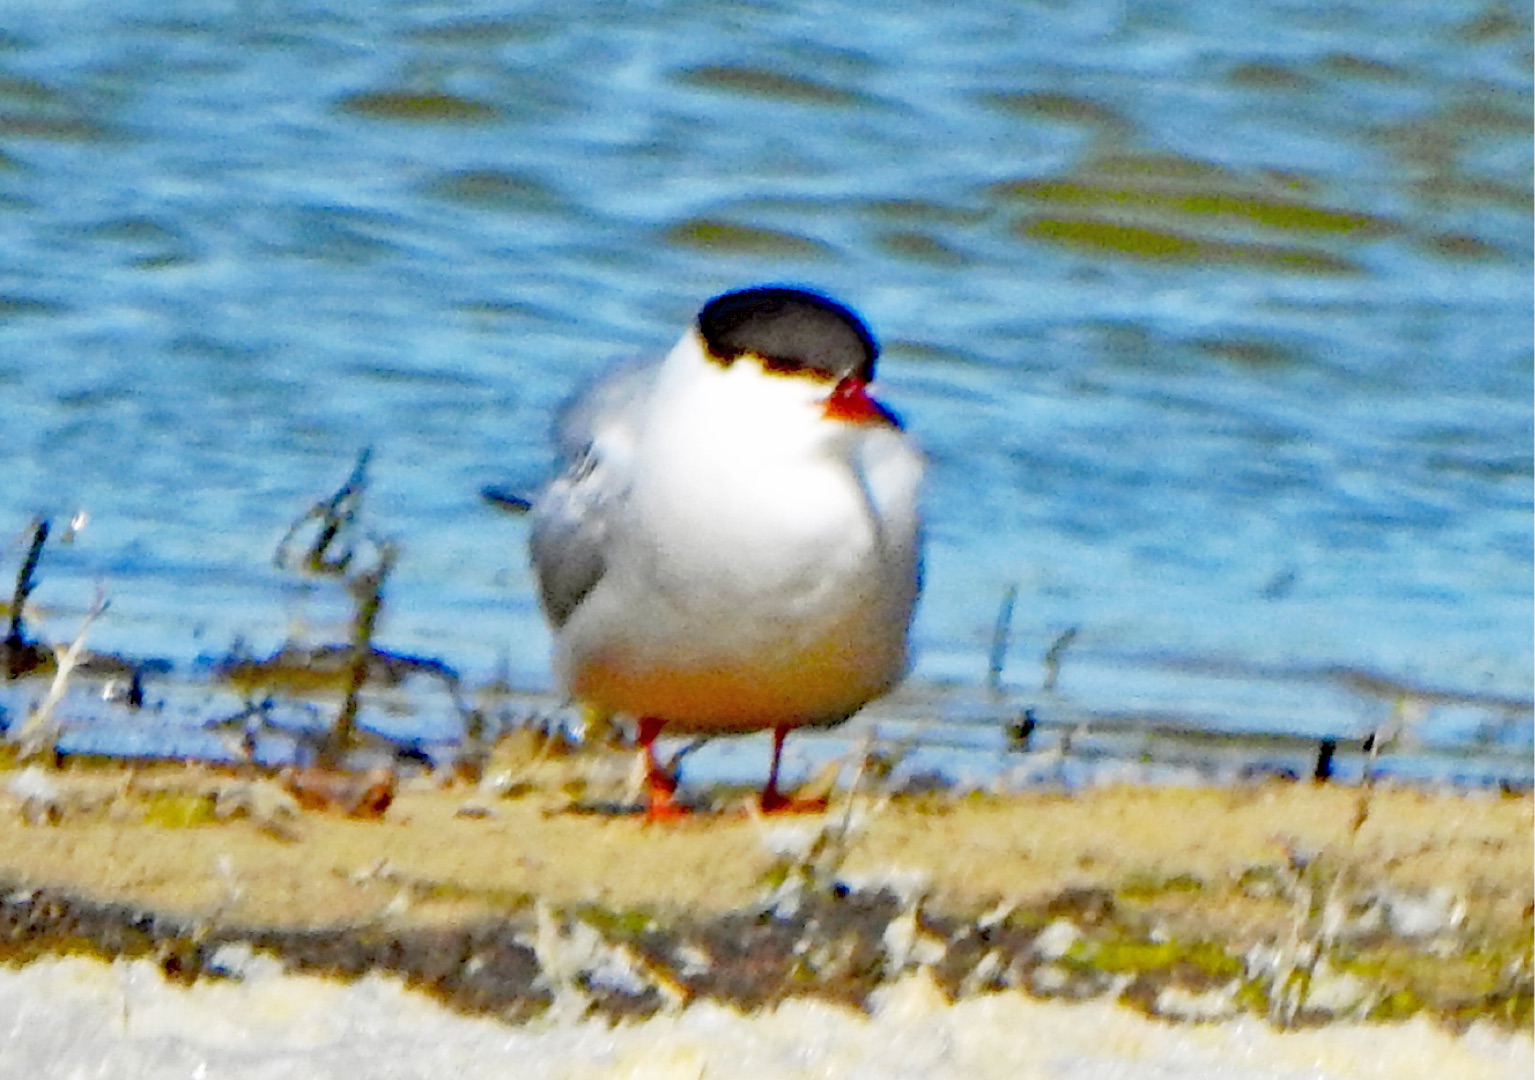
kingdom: Animalia
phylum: Chordata
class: Aves
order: Charadriiformes
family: Laridae
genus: Sterna
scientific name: Sterna hirundo
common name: Fjordterne
